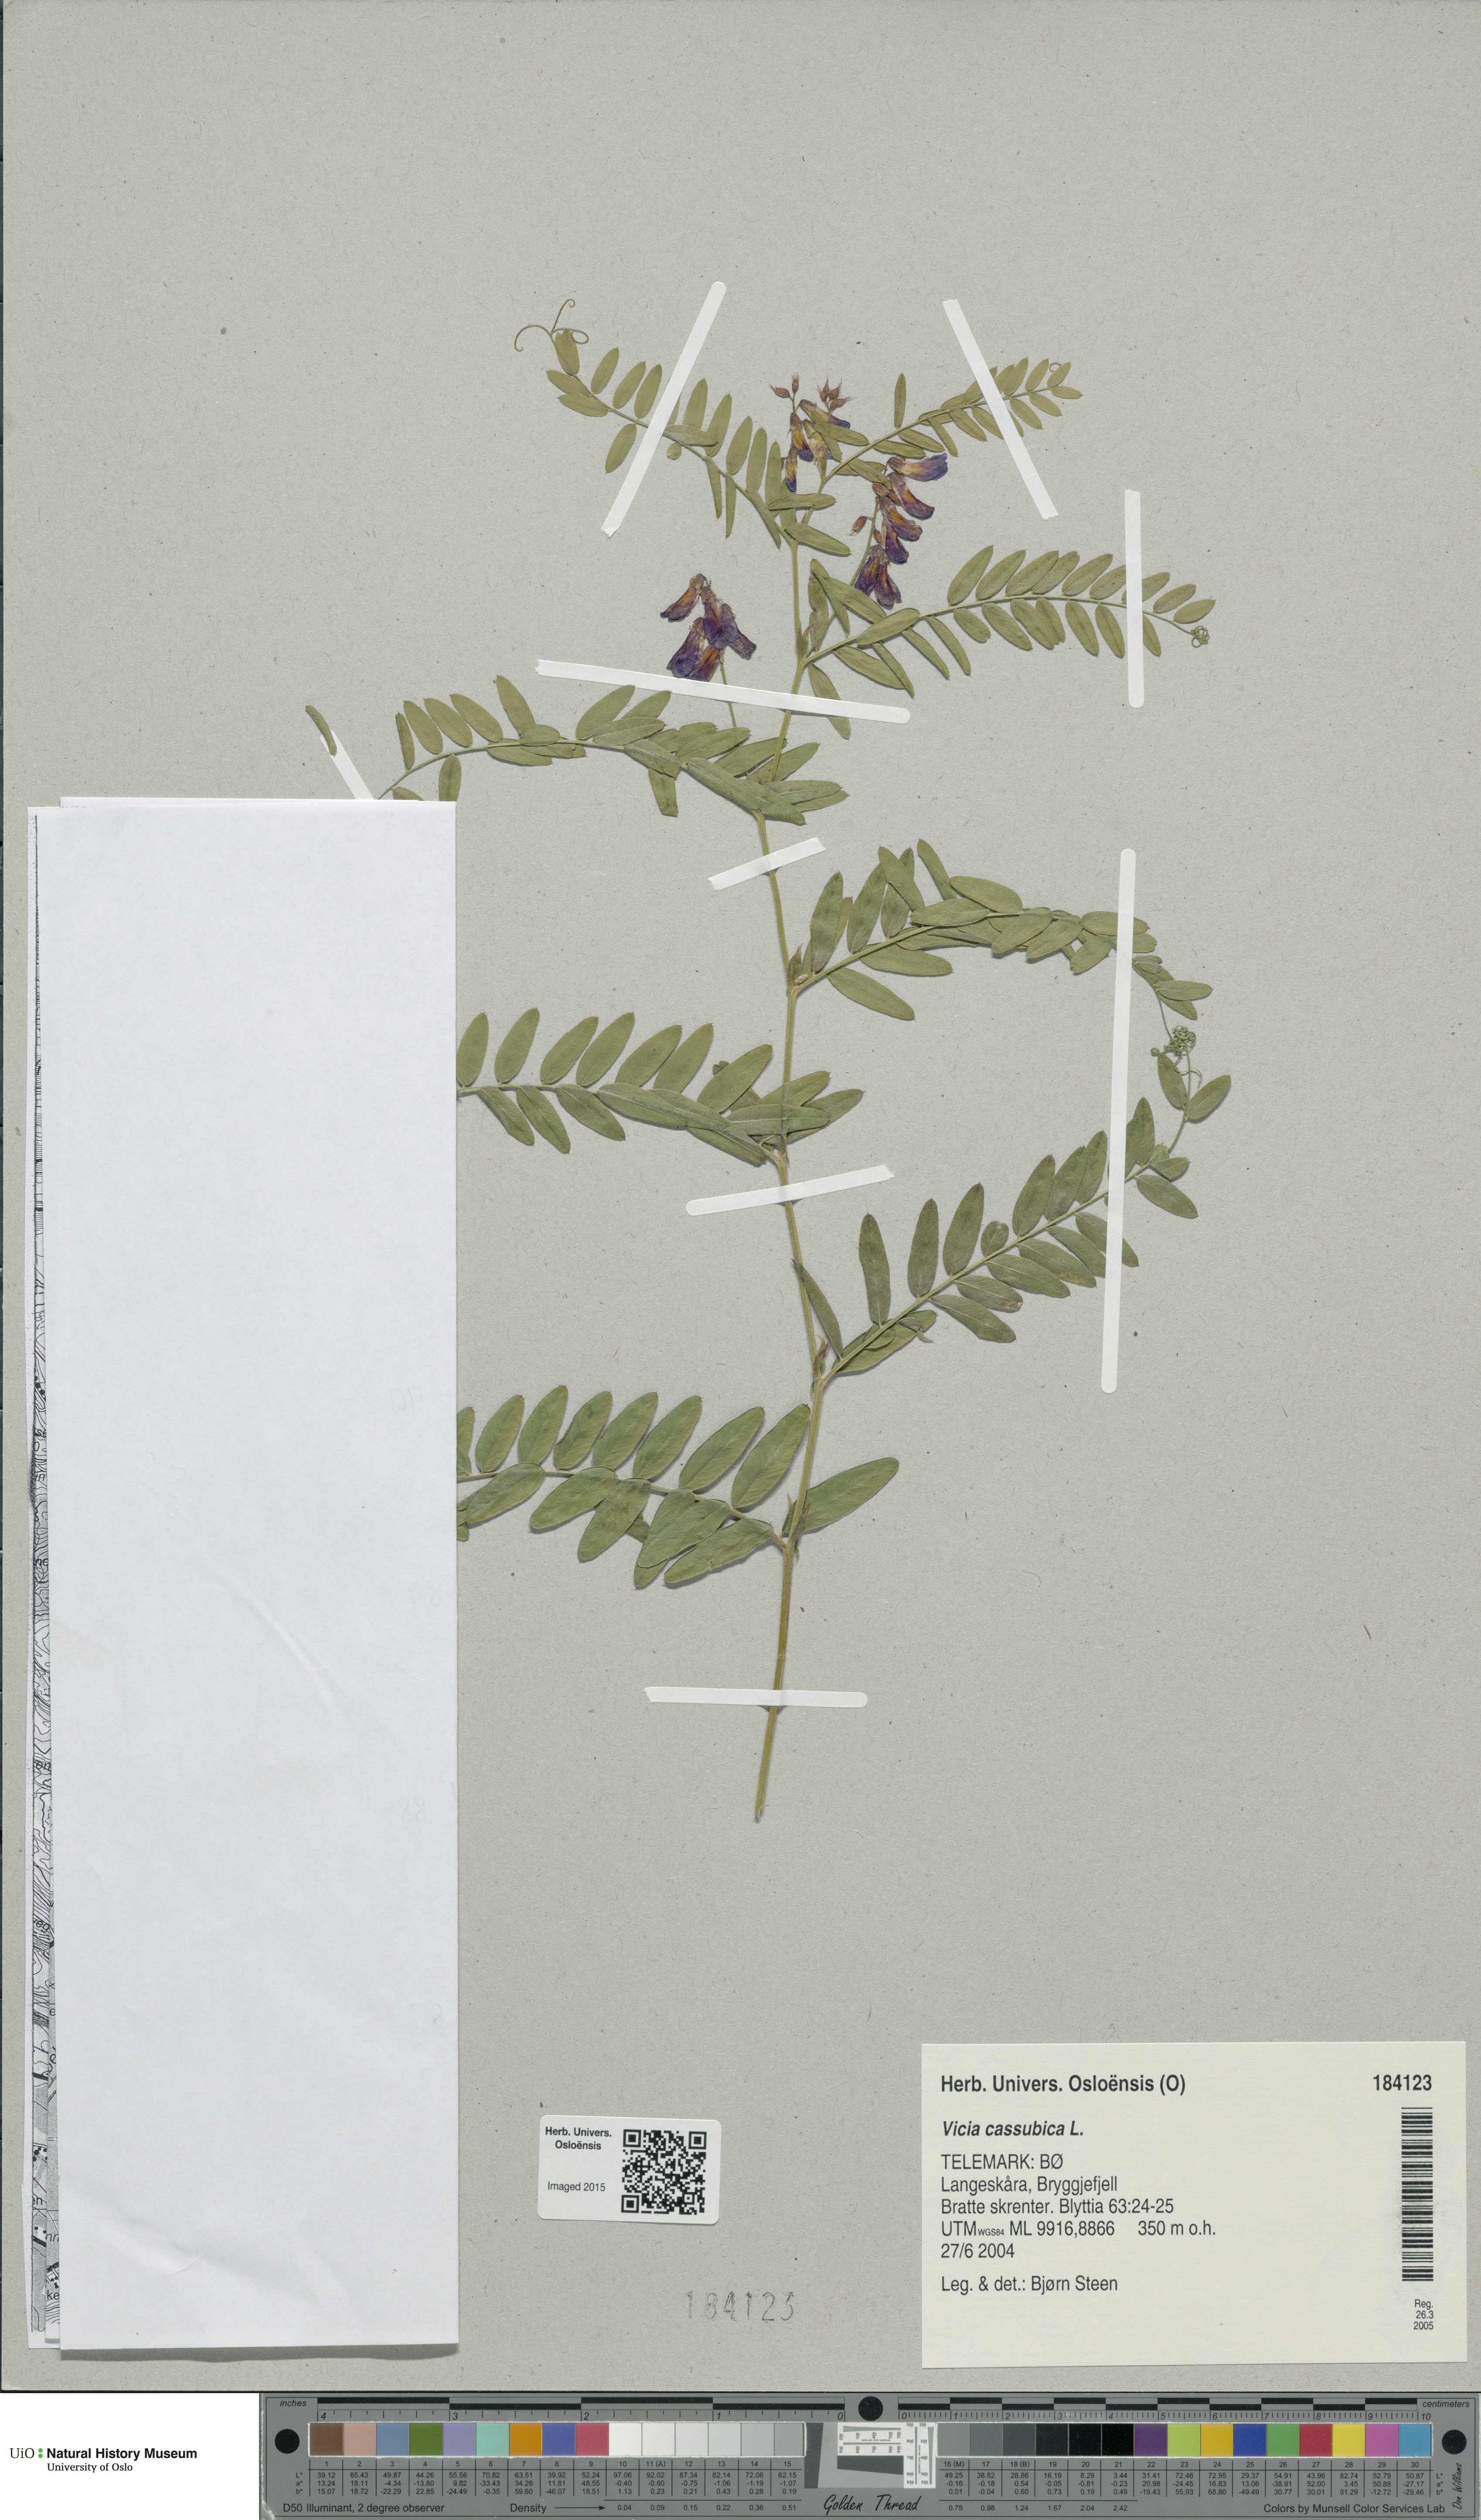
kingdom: Plantae
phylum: Tracheophyta
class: Magnoliopsida
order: Fabales
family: Fabaceae
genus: Vicia
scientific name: Vicia cassubica
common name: Danzig vetch
